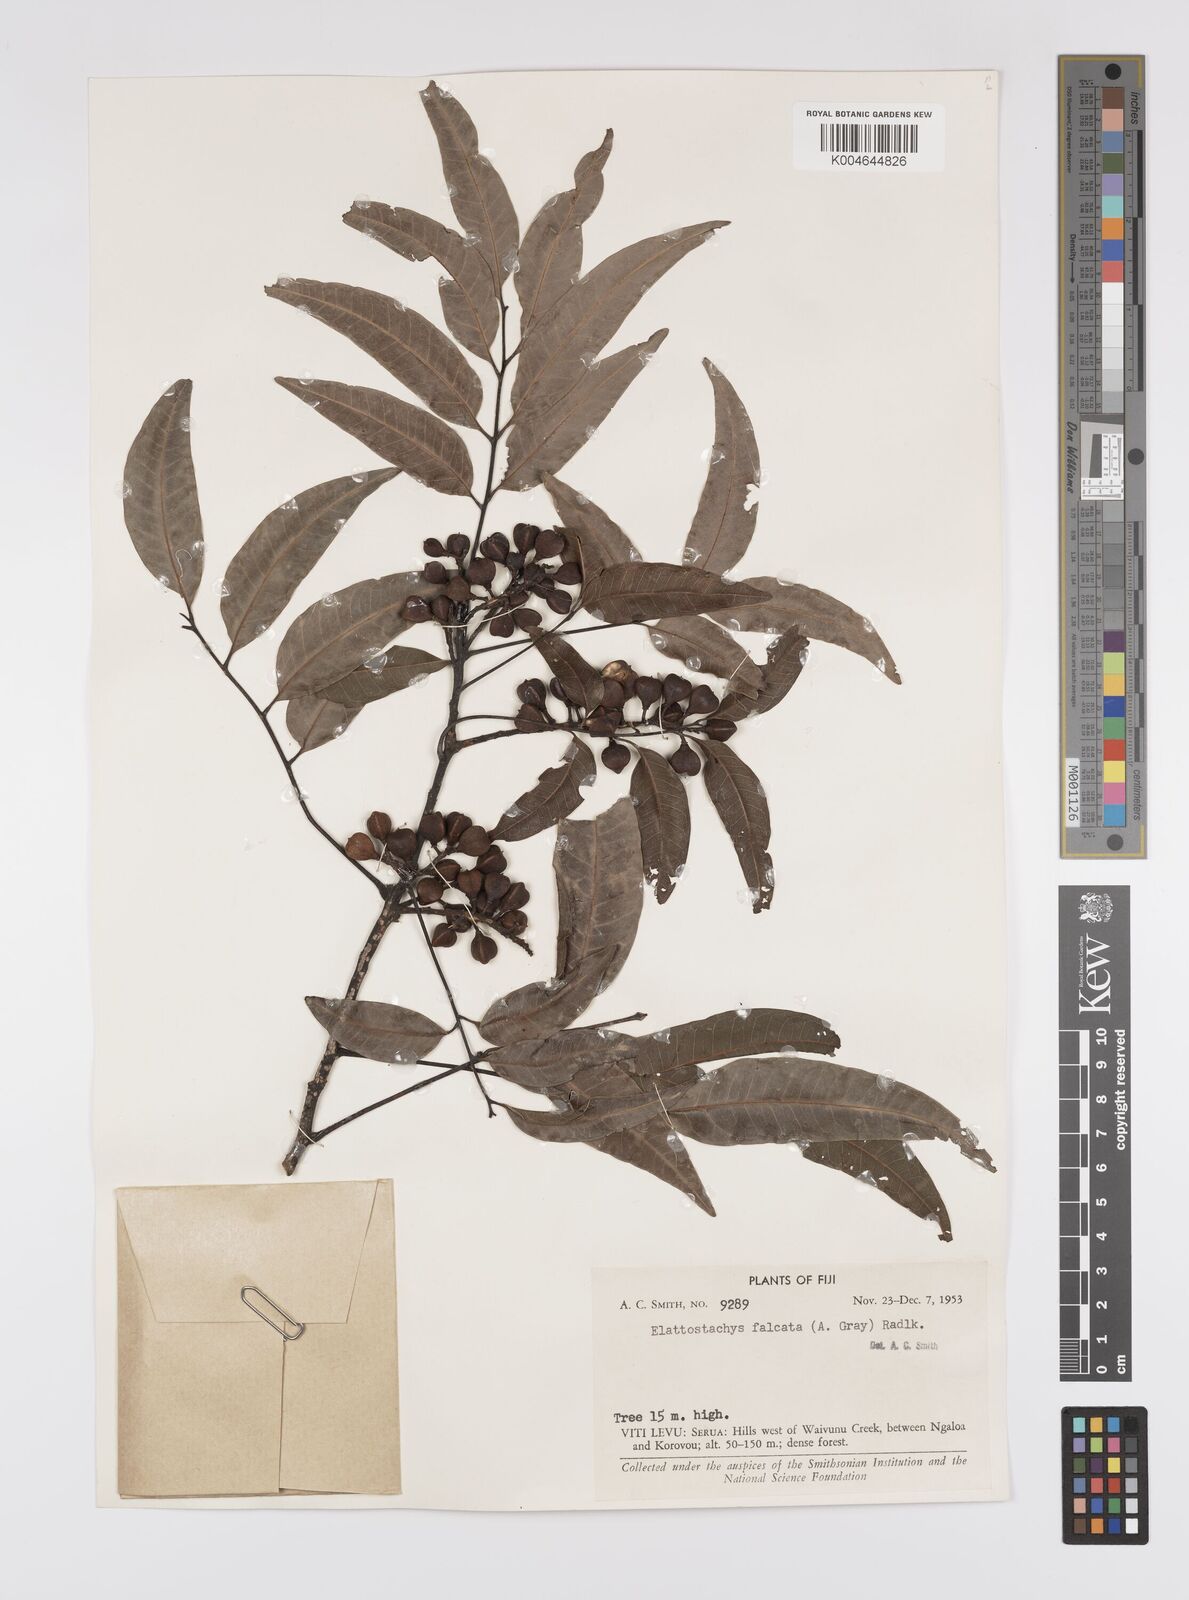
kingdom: Plantae
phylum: Tracheophyta
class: Magnoliopsida
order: Sapindales
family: Sapindaceae
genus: Elattostachys
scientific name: Elattostachys apetala
